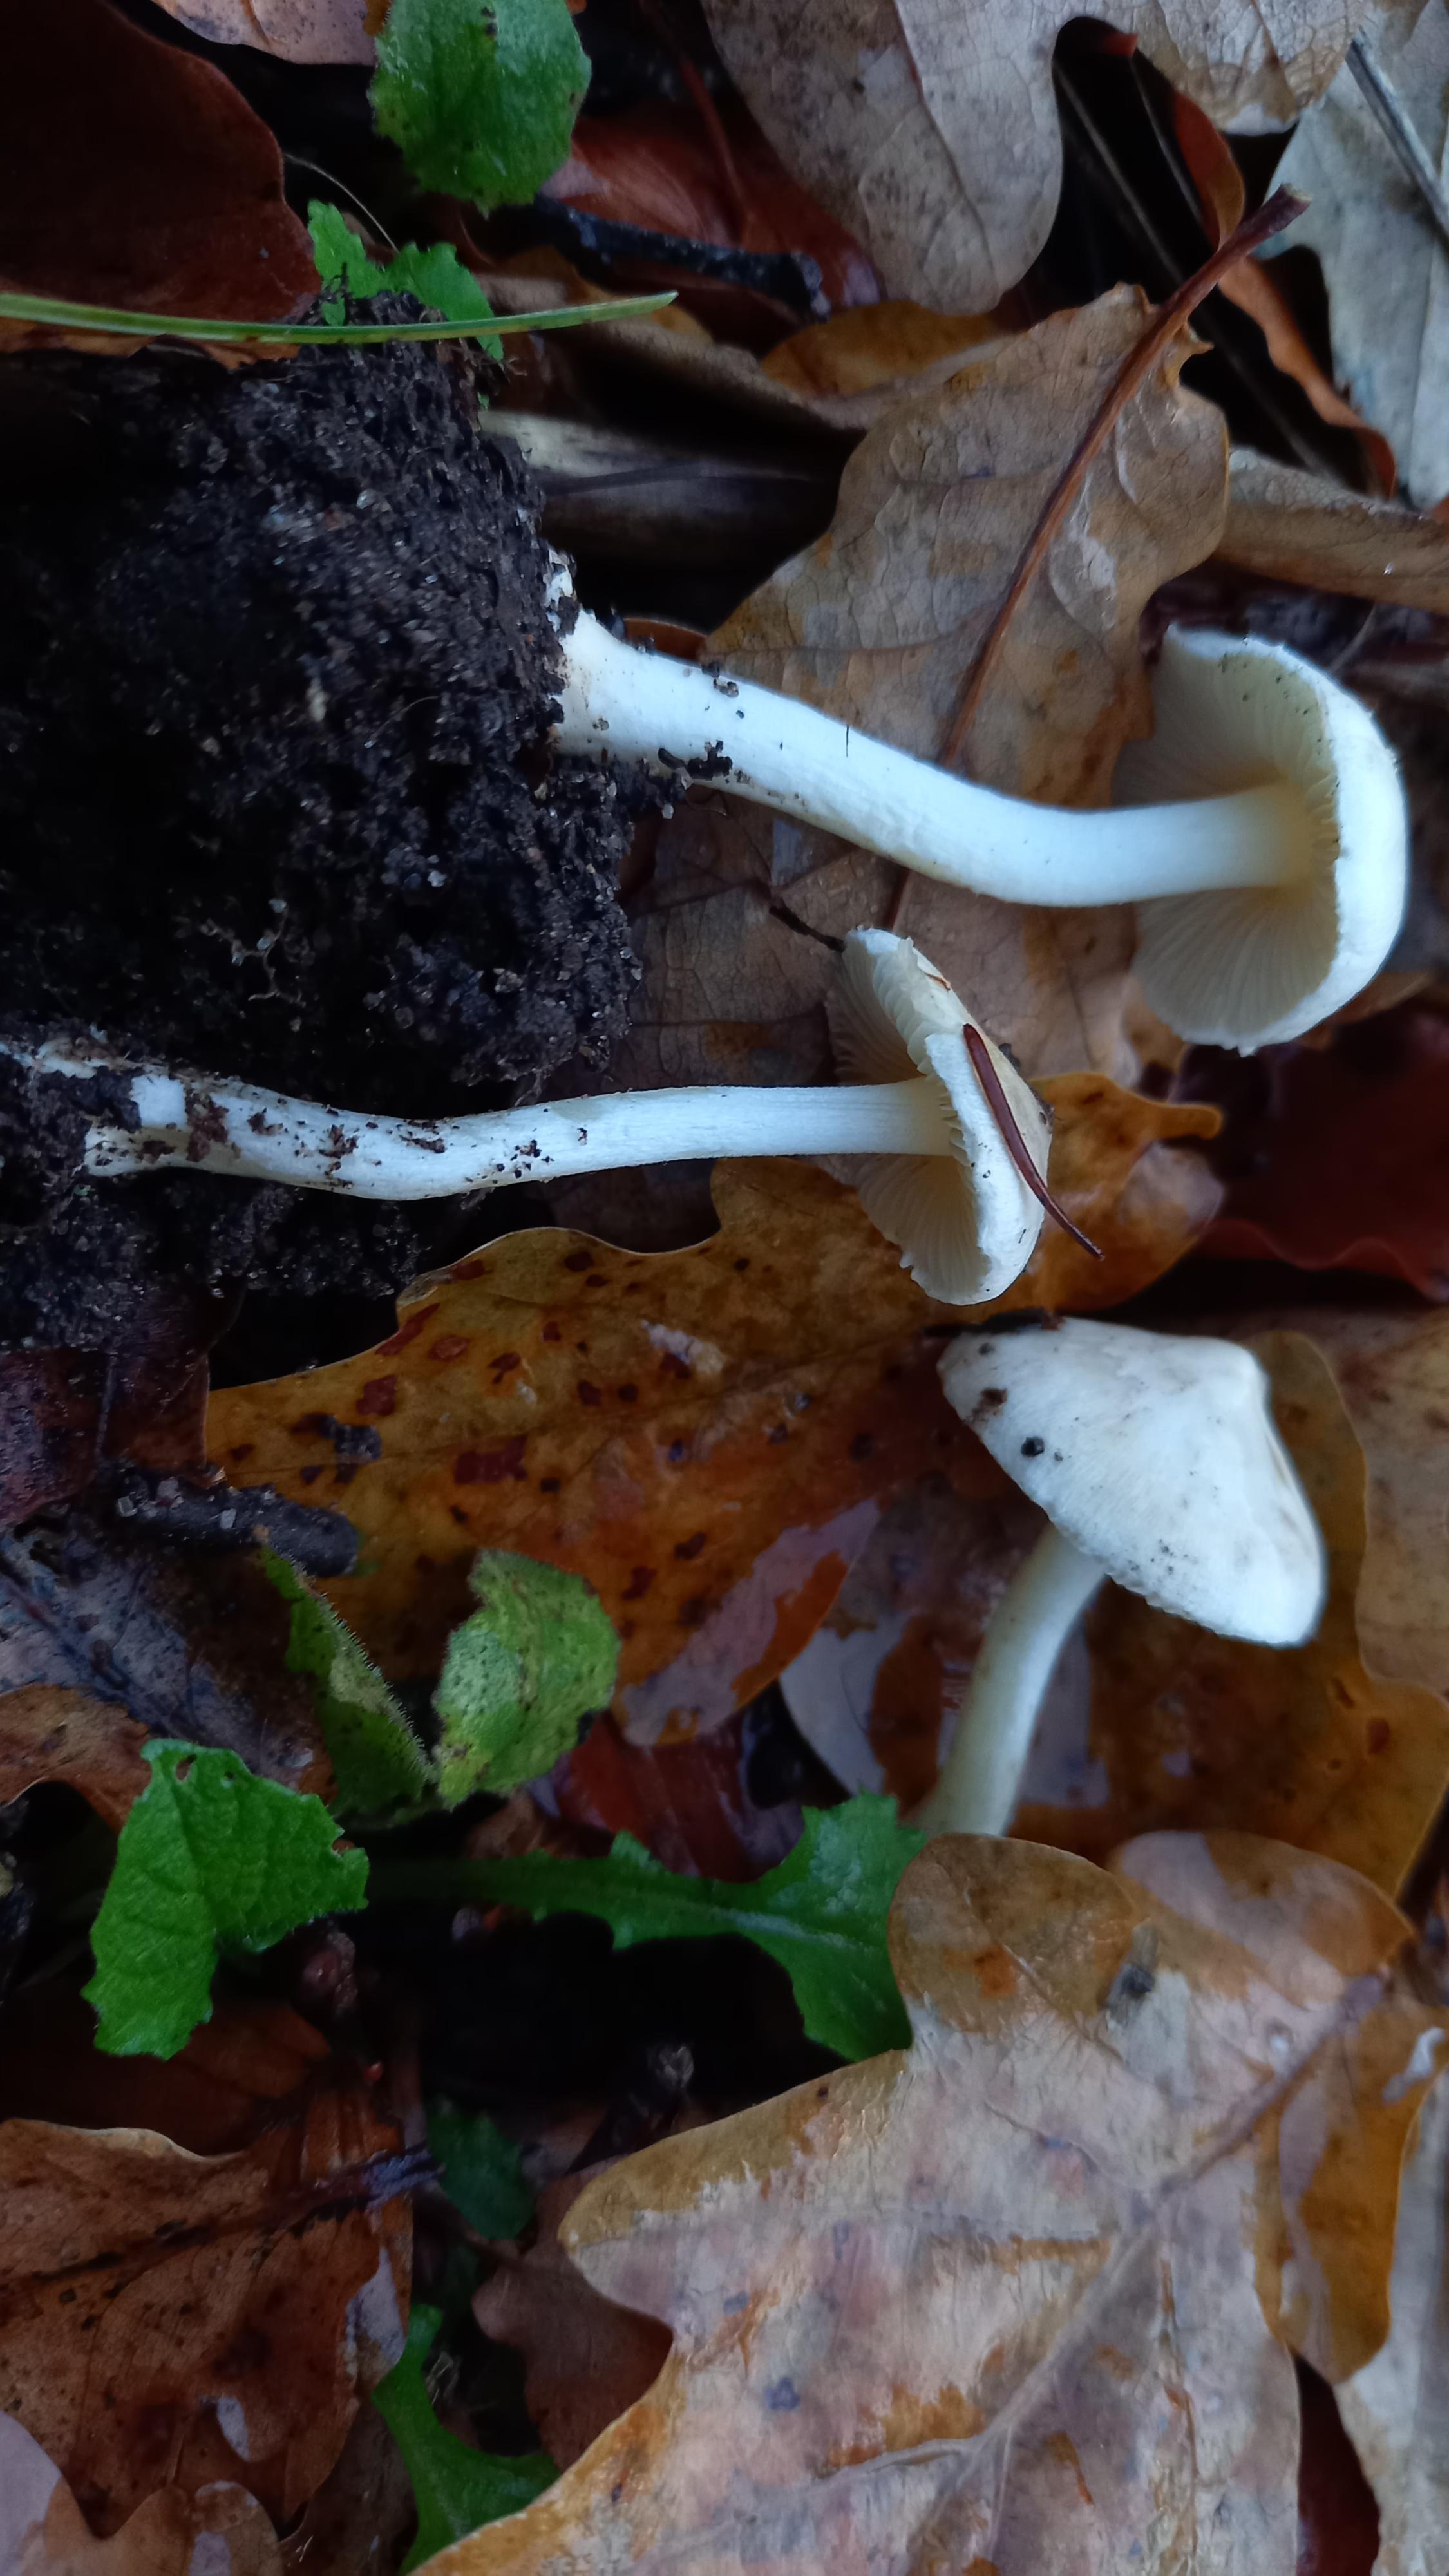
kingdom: Fungi
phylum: Basidiomycota
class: Agaricomycetes
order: Agaricales
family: Inocybaceae
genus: Inocybe
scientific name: Inocybe
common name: almindelig trævlhat
